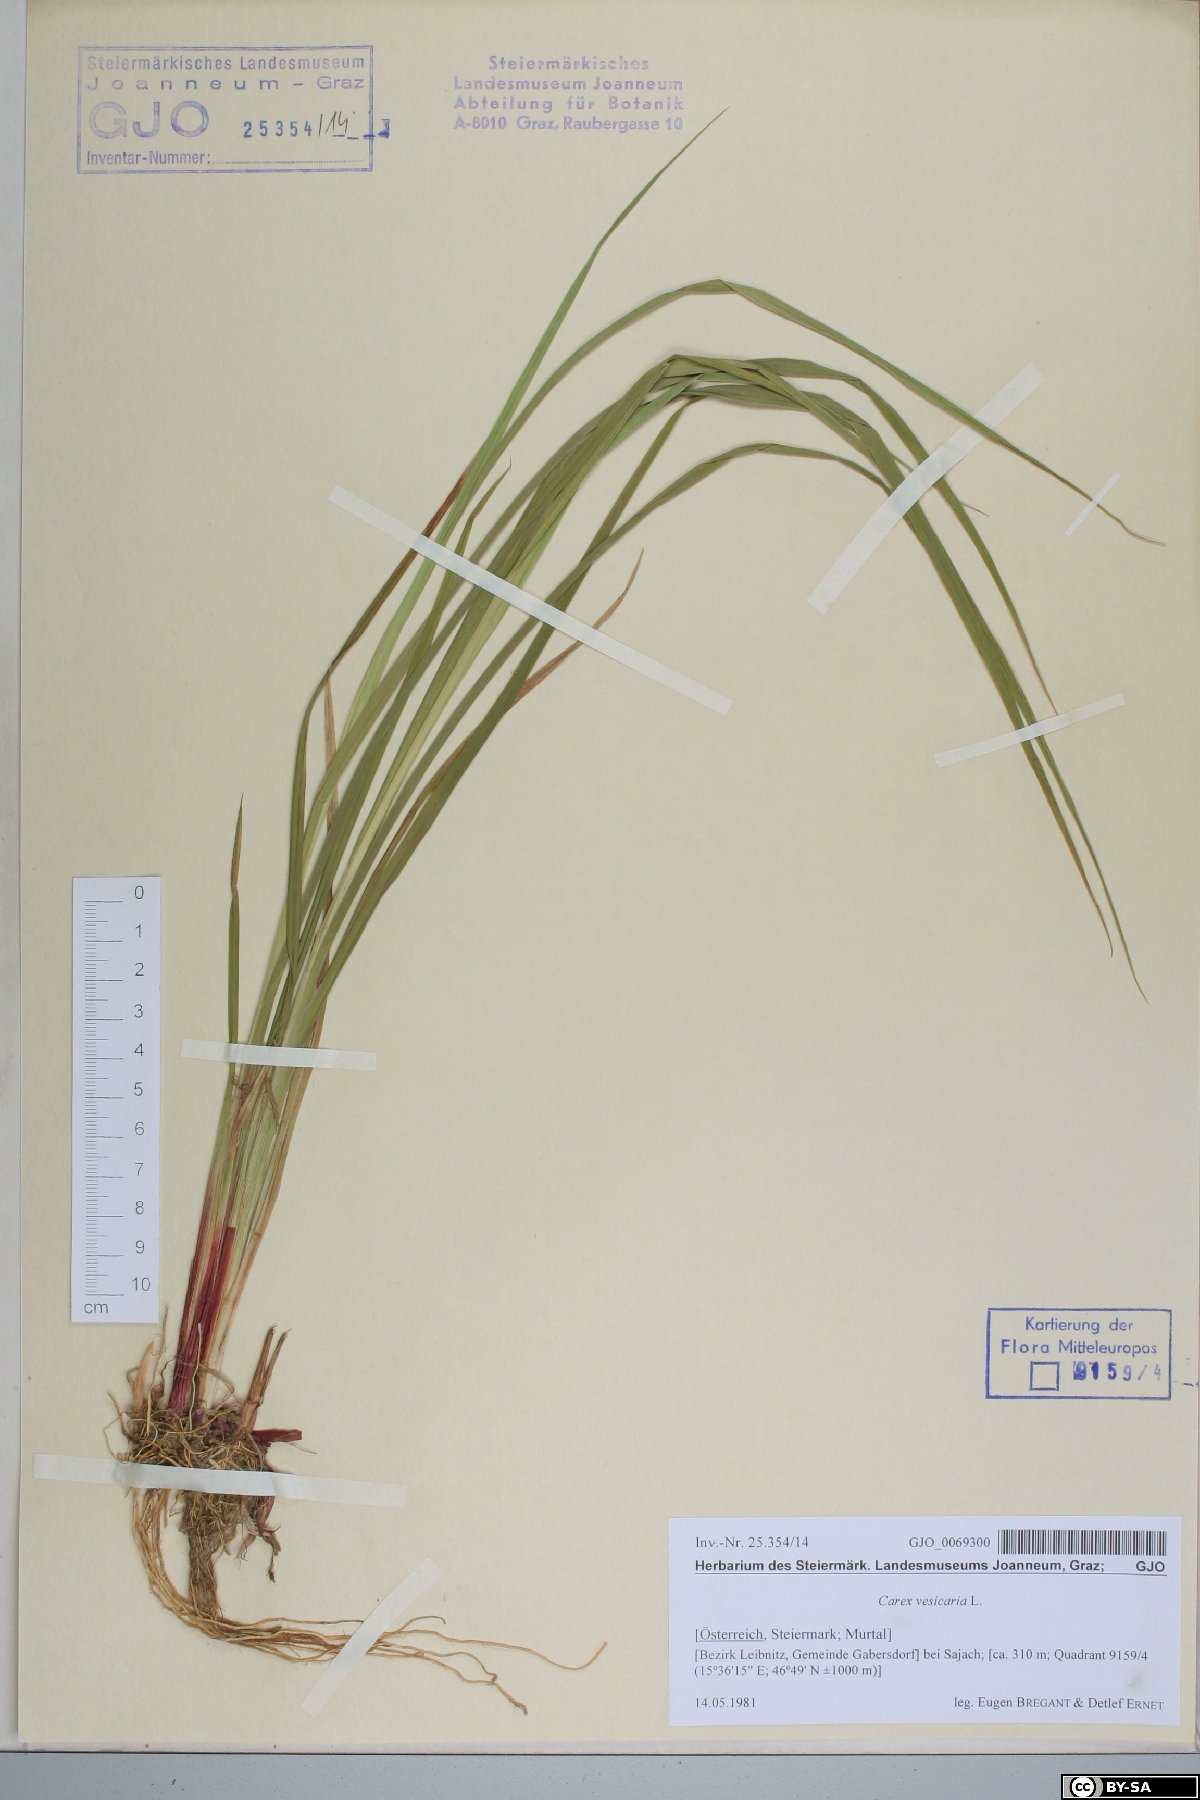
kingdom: Plantae
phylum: Tracheophyta
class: Liliopsida
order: Poales
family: Cyperaceae
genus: Carex
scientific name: Carex vesicaria
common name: Bladder-sedge
